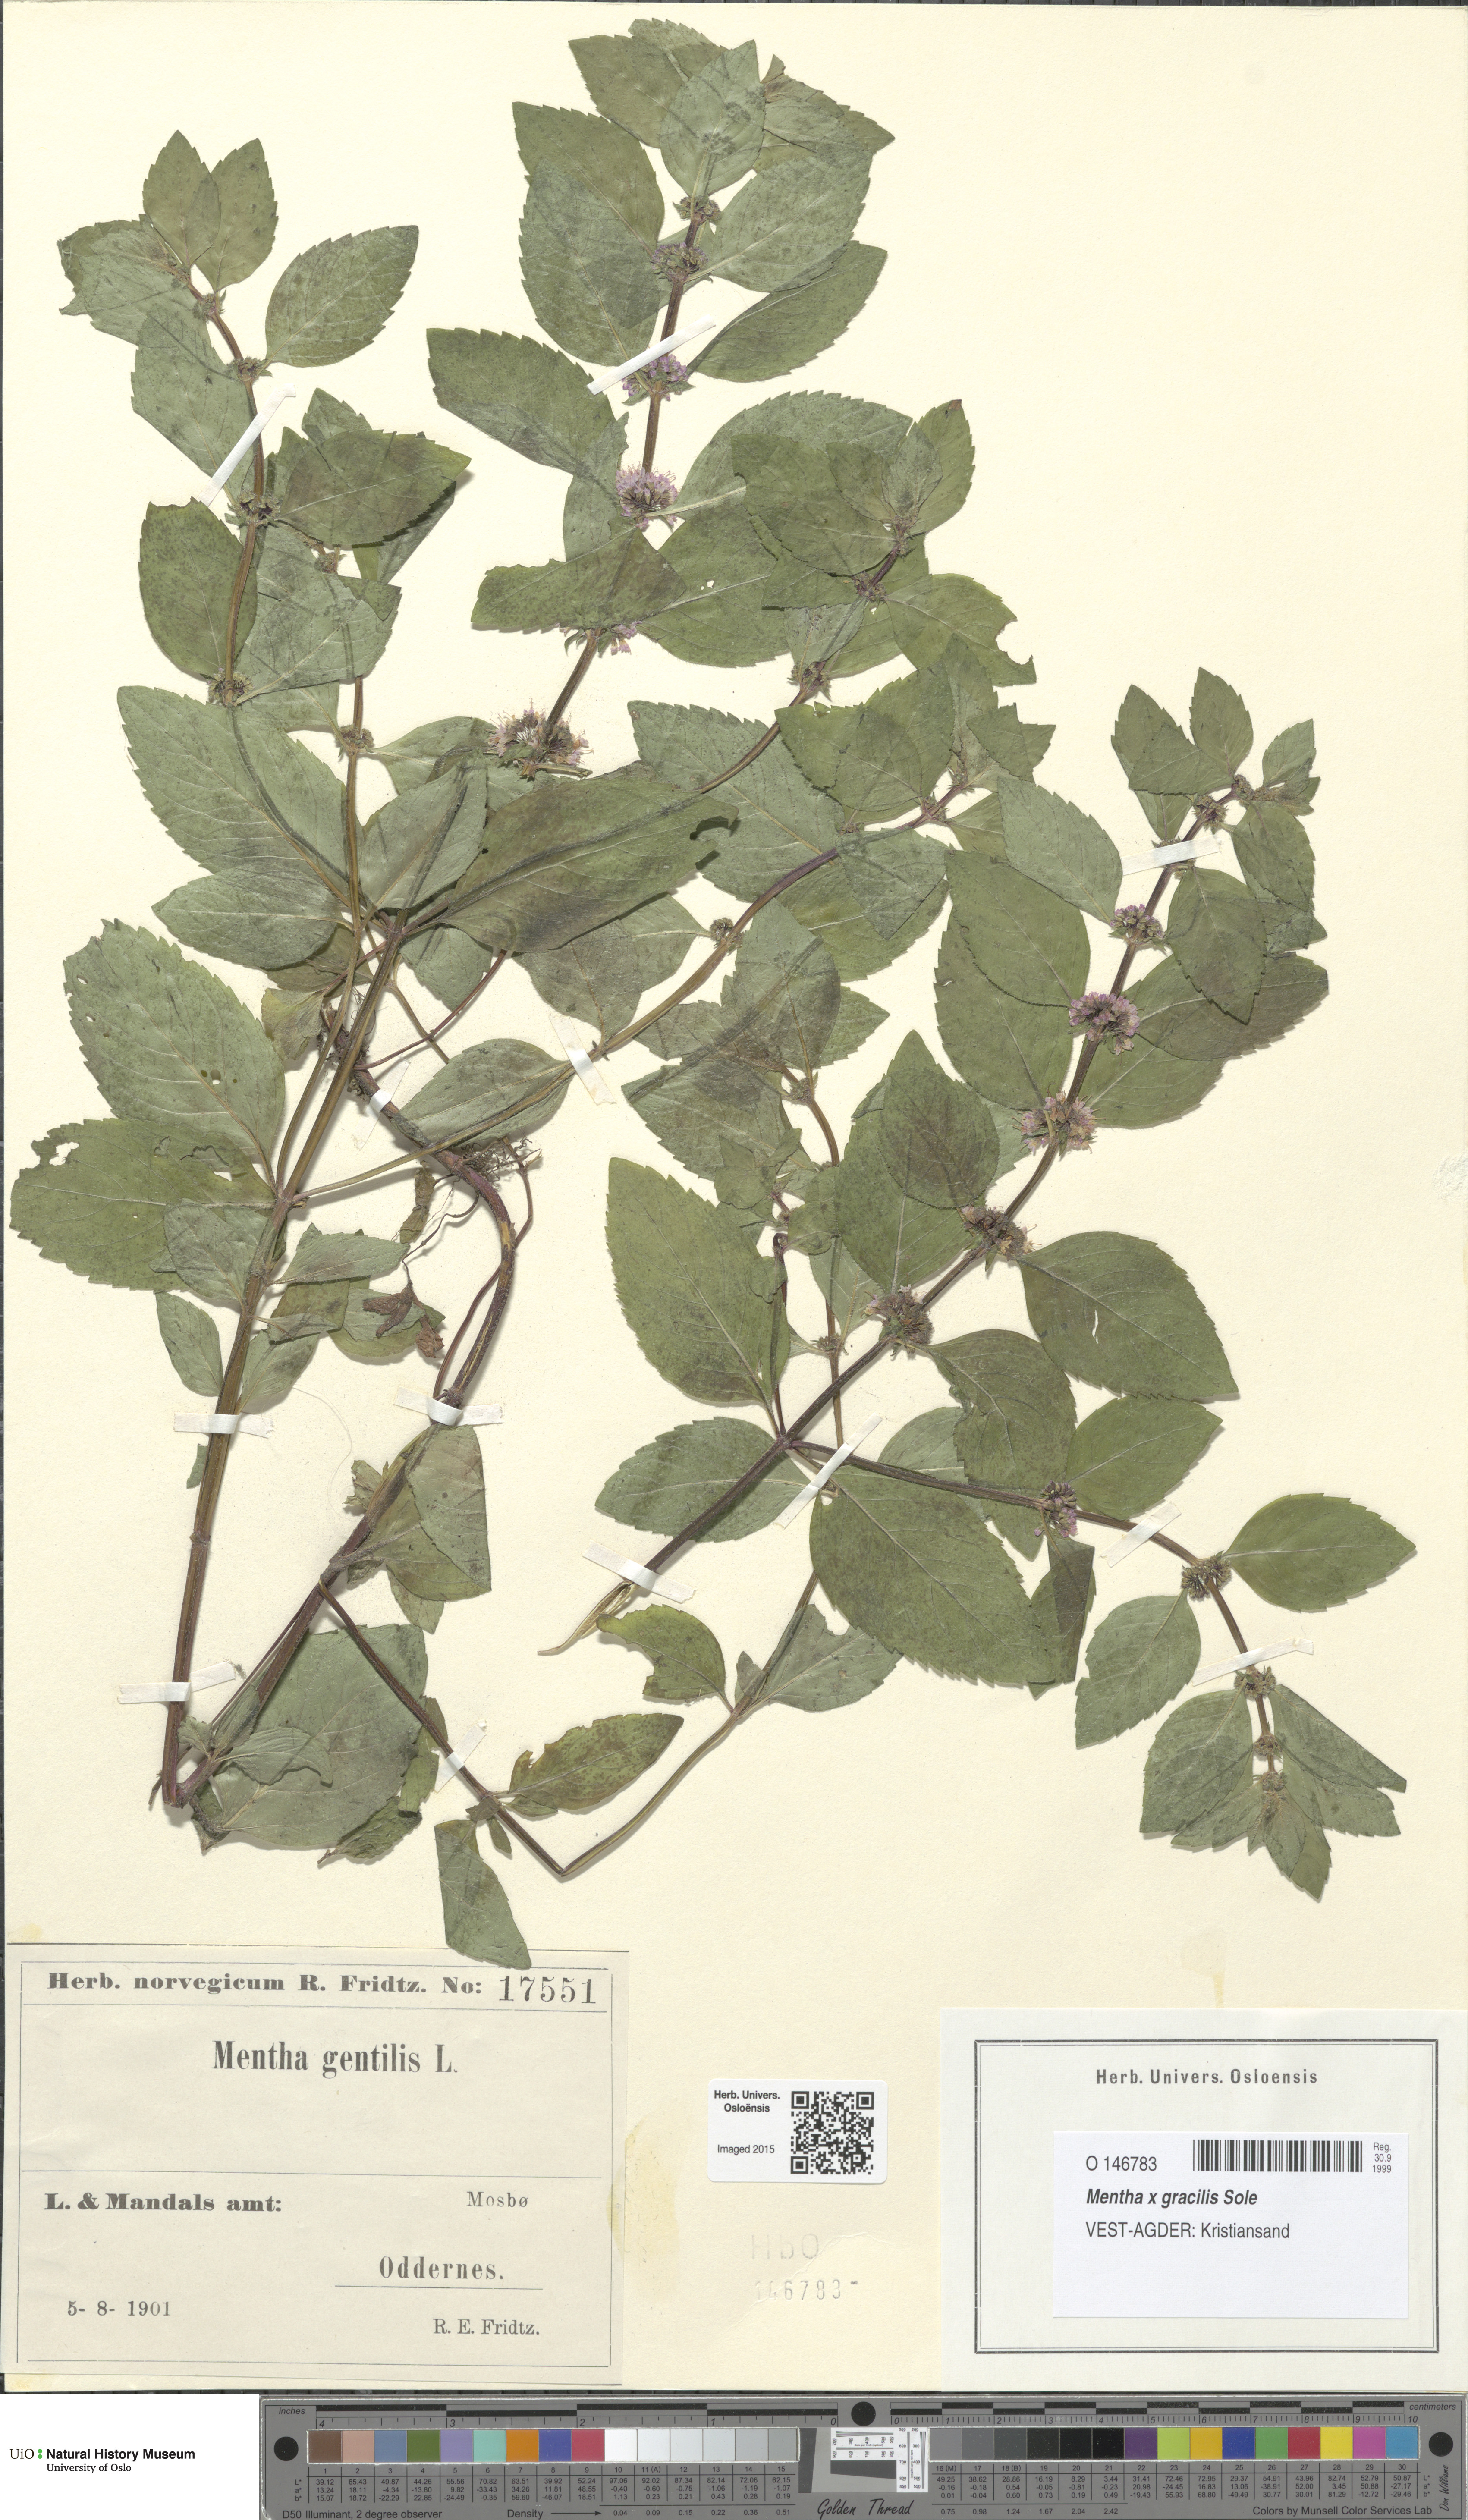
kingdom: Plantae
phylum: Tracheophyta
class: Magnoliopsida
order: Lamiales
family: Lamiaceae
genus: Mentha
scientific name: Mentha arvensis
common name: Corn mint
